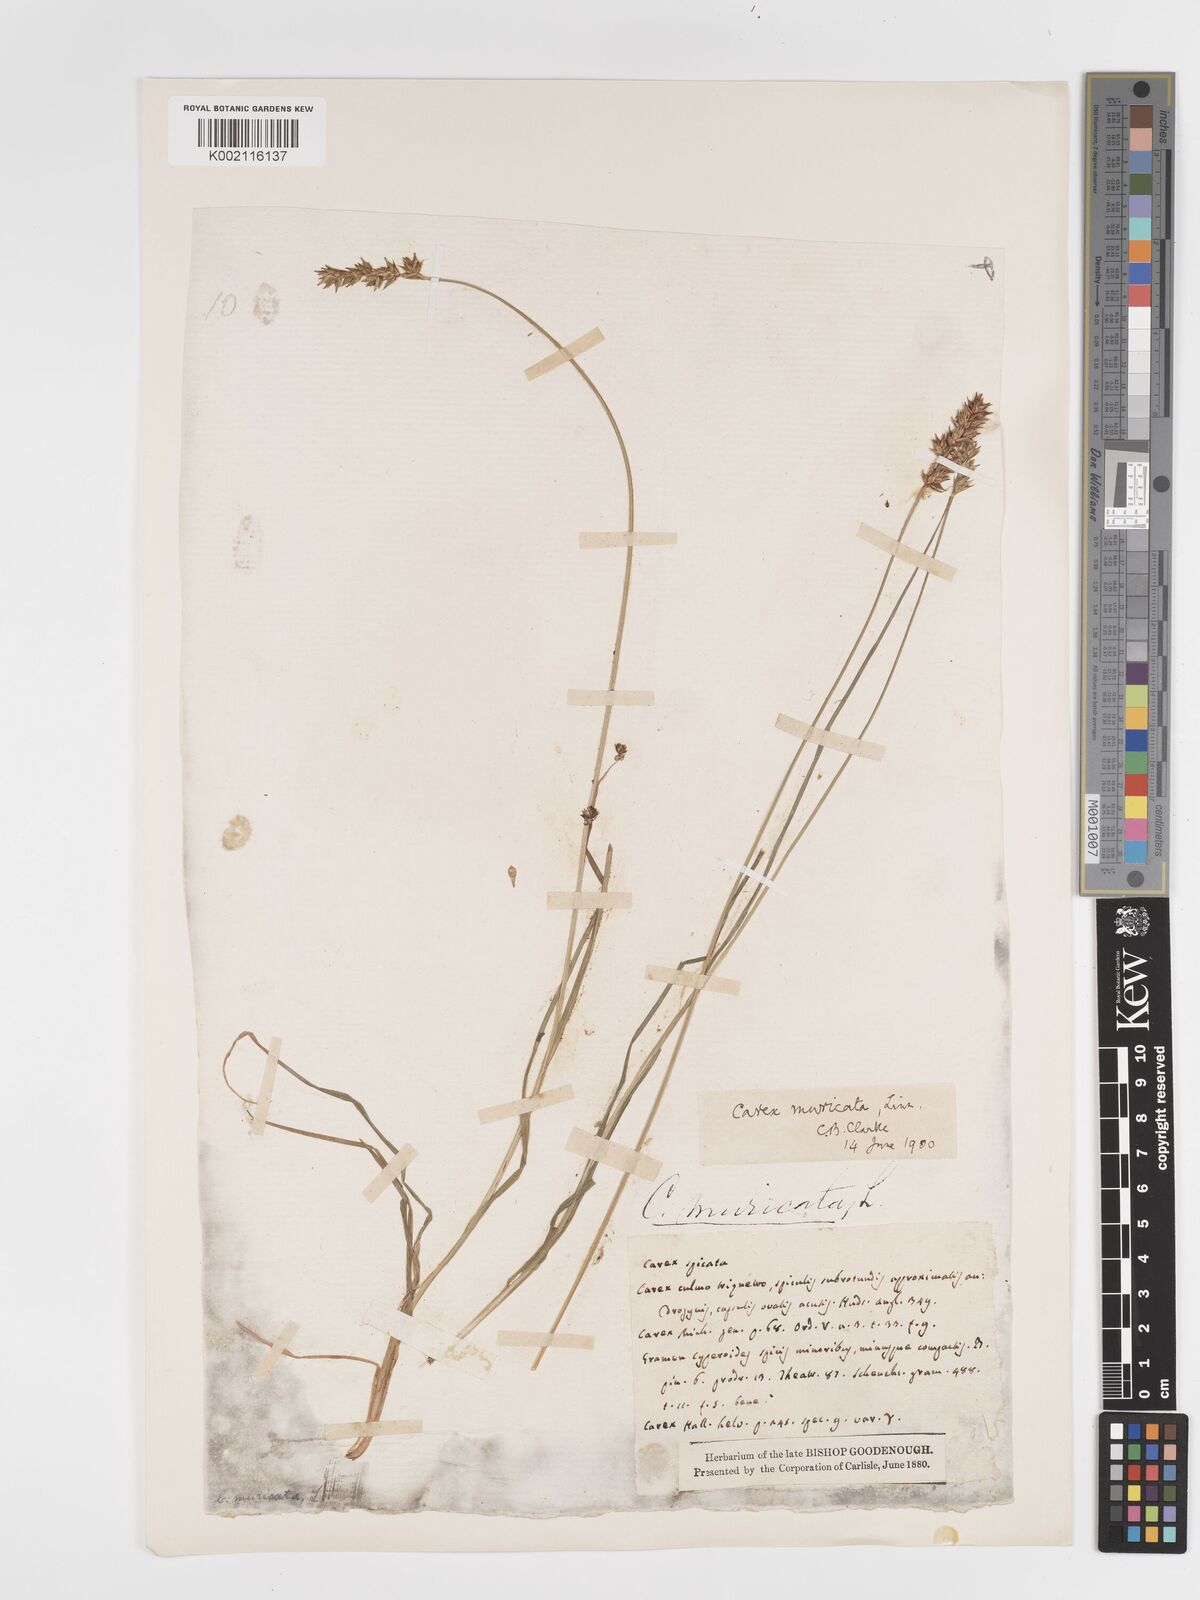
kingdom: Plantae
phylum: Tracheophyta
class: Liliopsida
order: Poales
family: Cyperaceae
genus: Carex
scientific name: Carex spicata
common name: Spiked sedge
